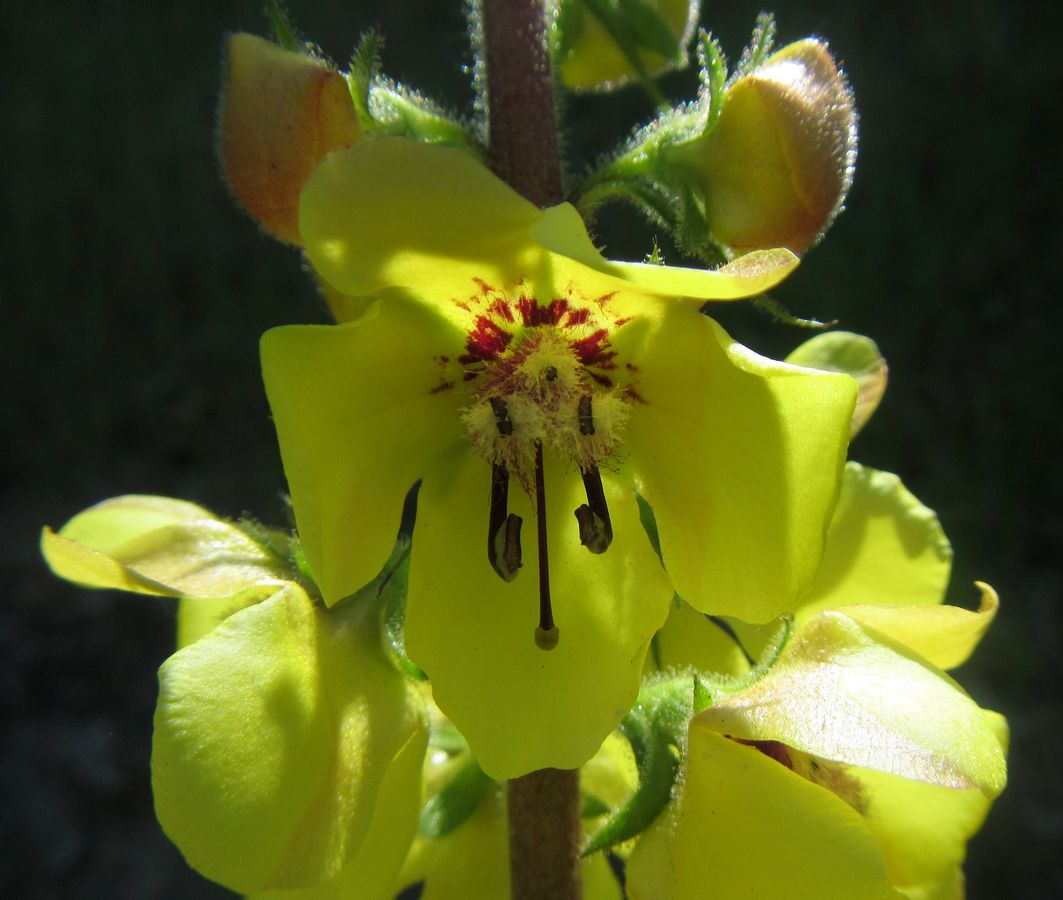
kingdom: Plantae
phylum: Tracheophyta
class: Magnoliopsida
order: Lamiales
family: Scrophulariaceae
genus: Verbascum
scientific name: Verbascum salgirensis
